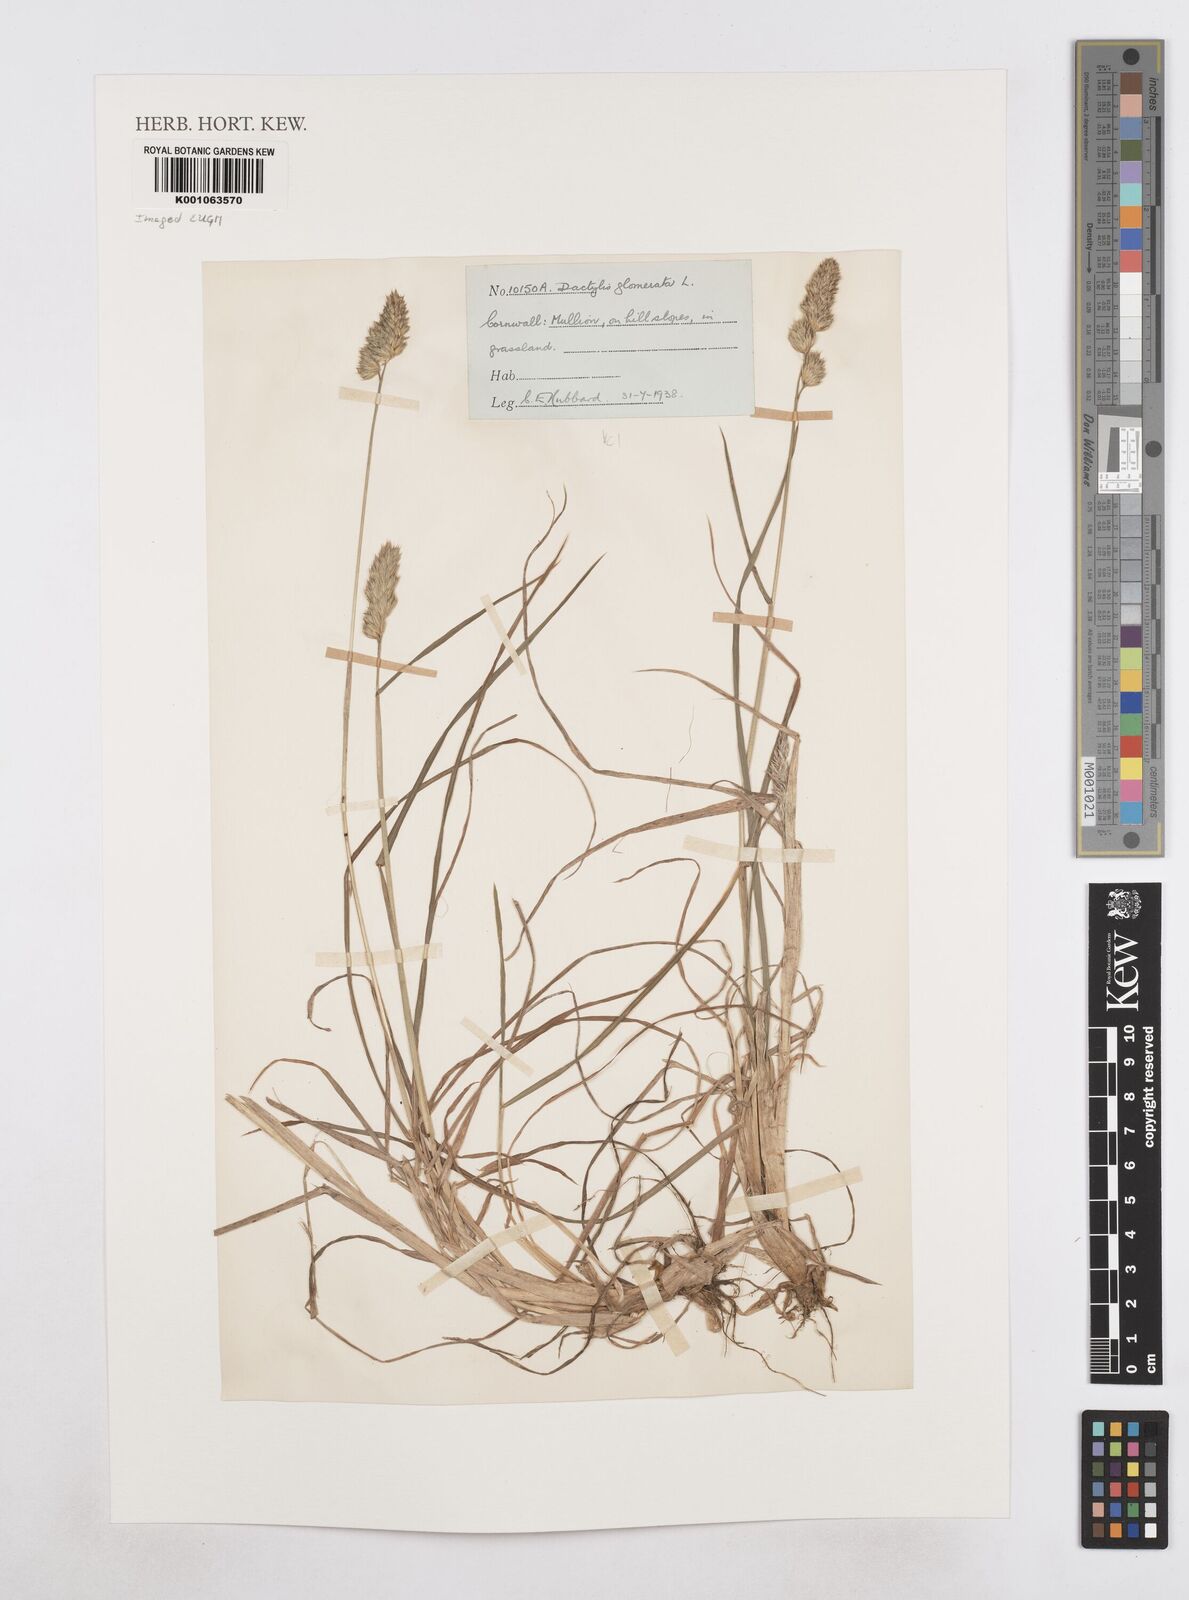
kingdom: Plantae
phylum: Tracheophyta
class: Liliopsida
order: Poales
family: Poaceae
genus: Dactylis
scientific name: Dactylis glomerata
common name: Orchardgrass
